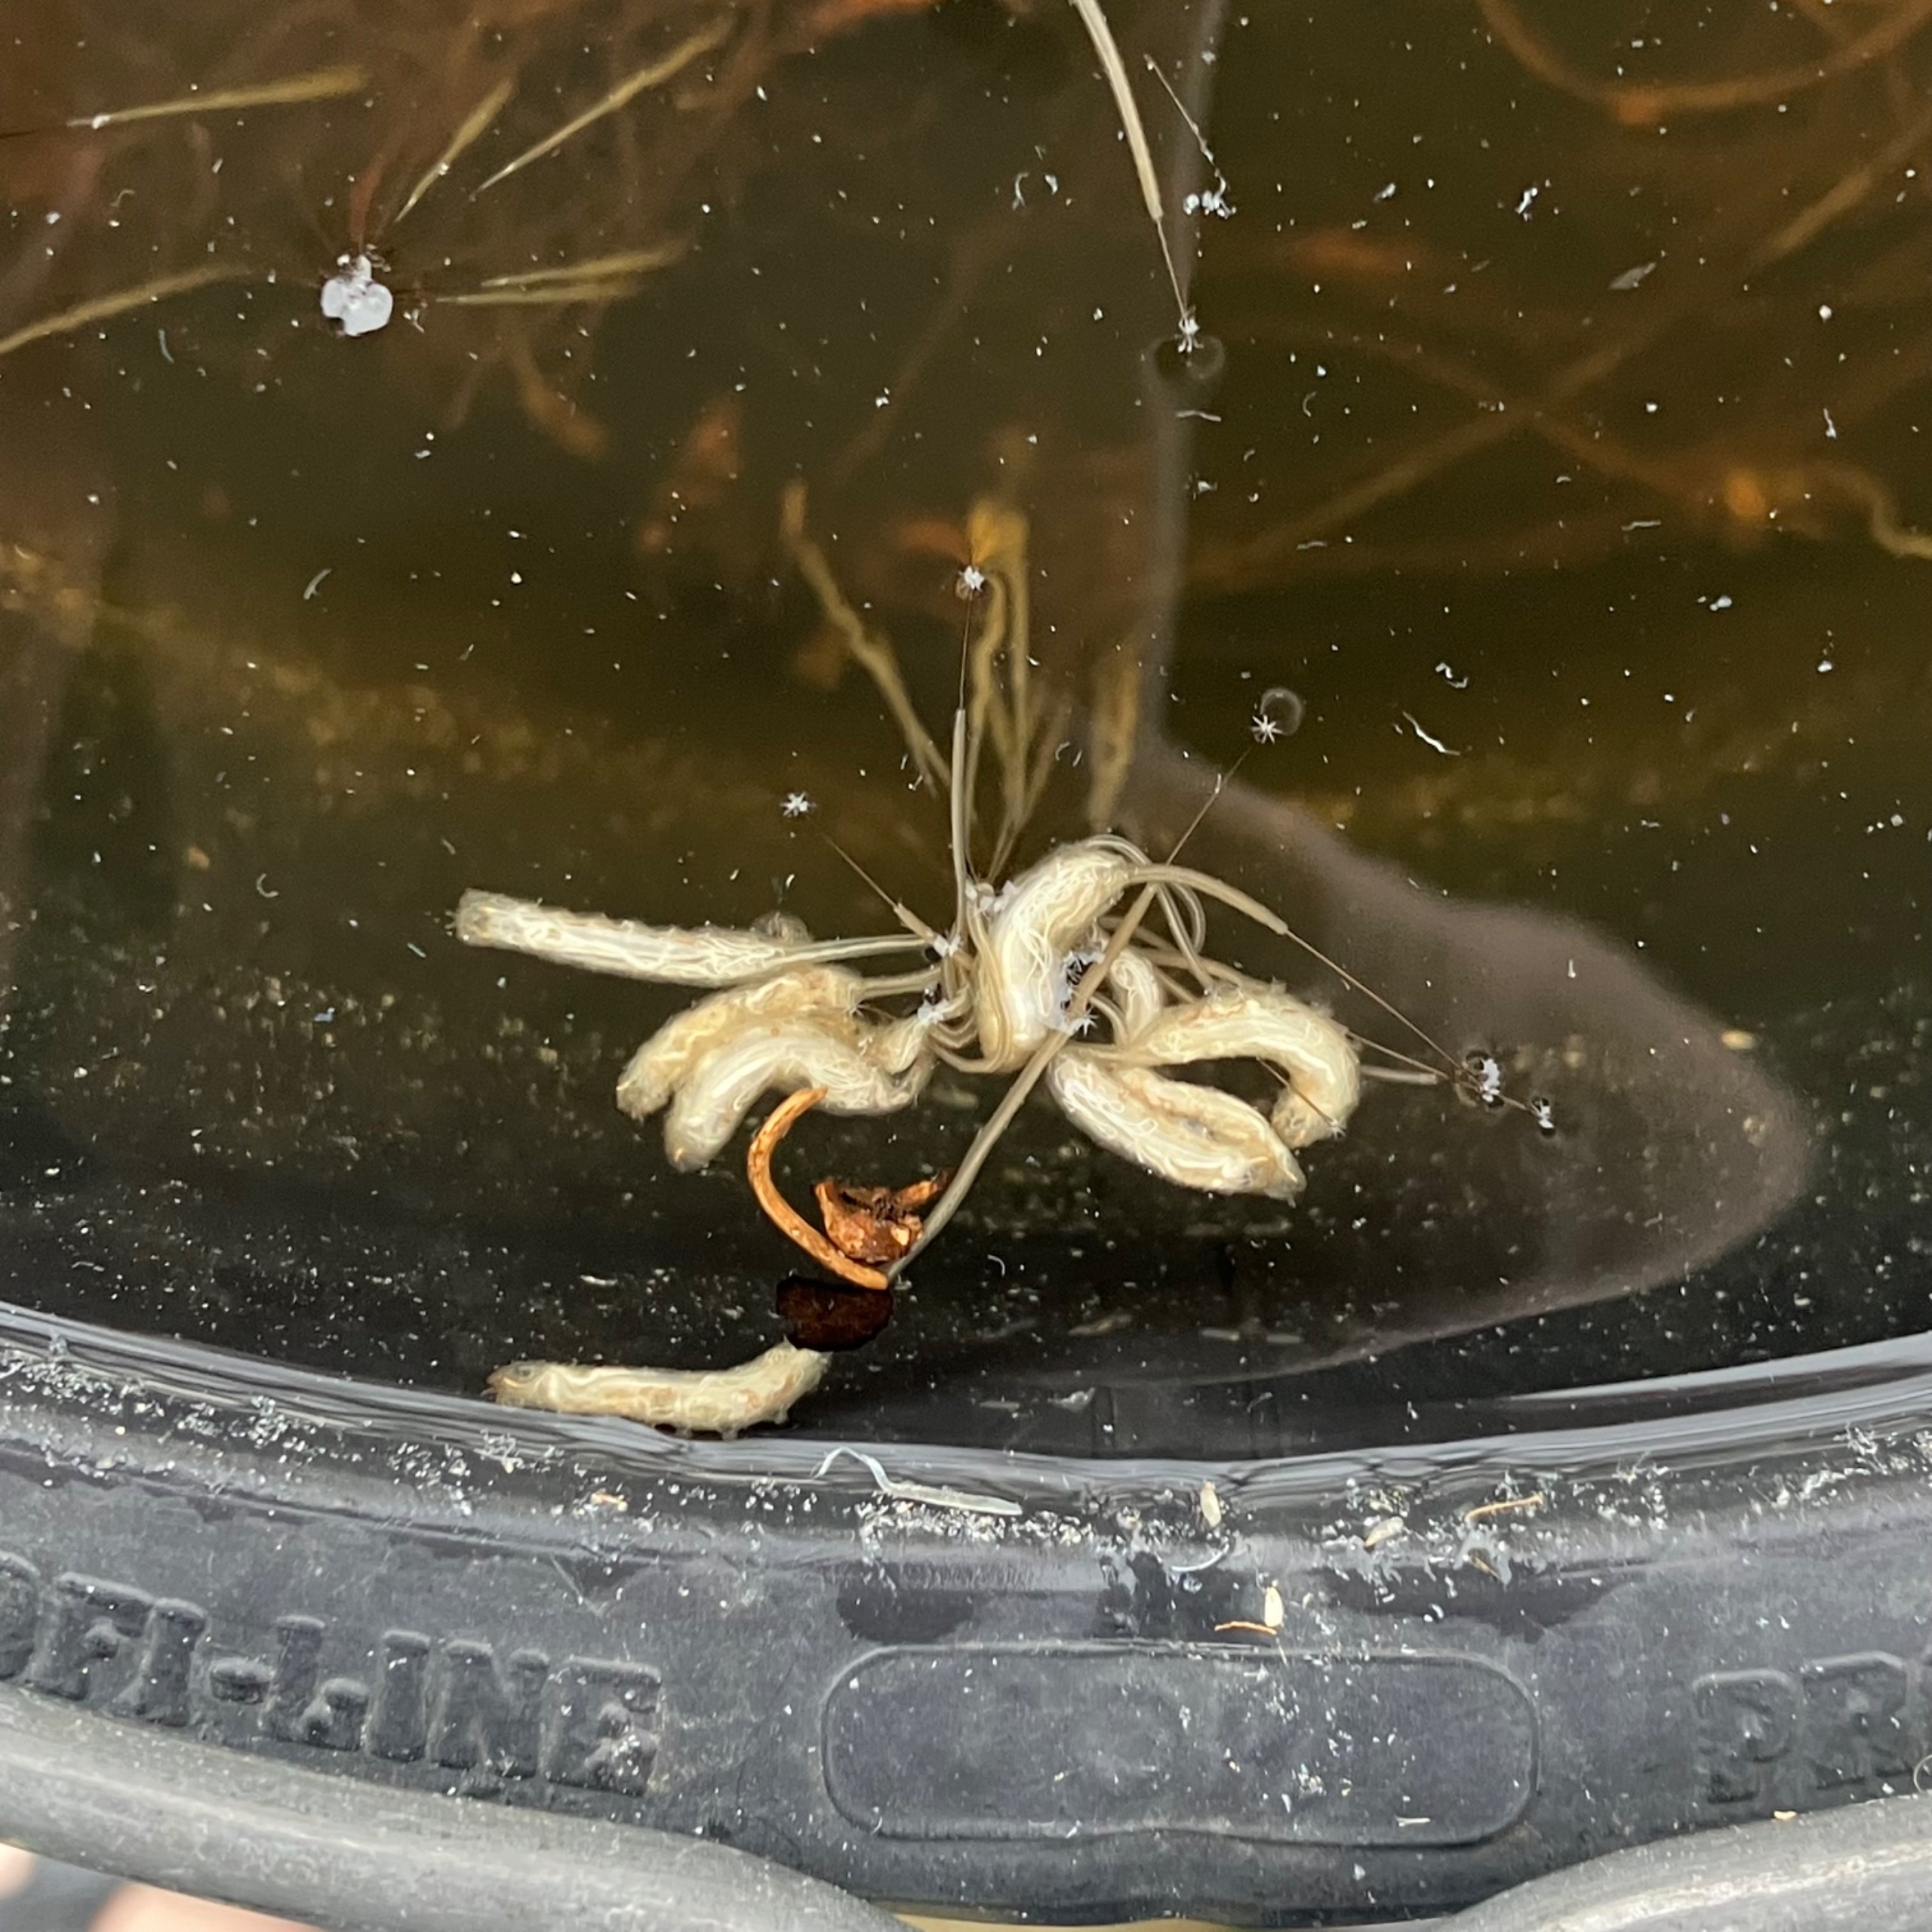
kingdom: Animalia
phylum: Arthropoda
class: Insecta
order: Diptera
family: Syrphidae
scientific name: Syrphidae
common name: Svirrefluer
